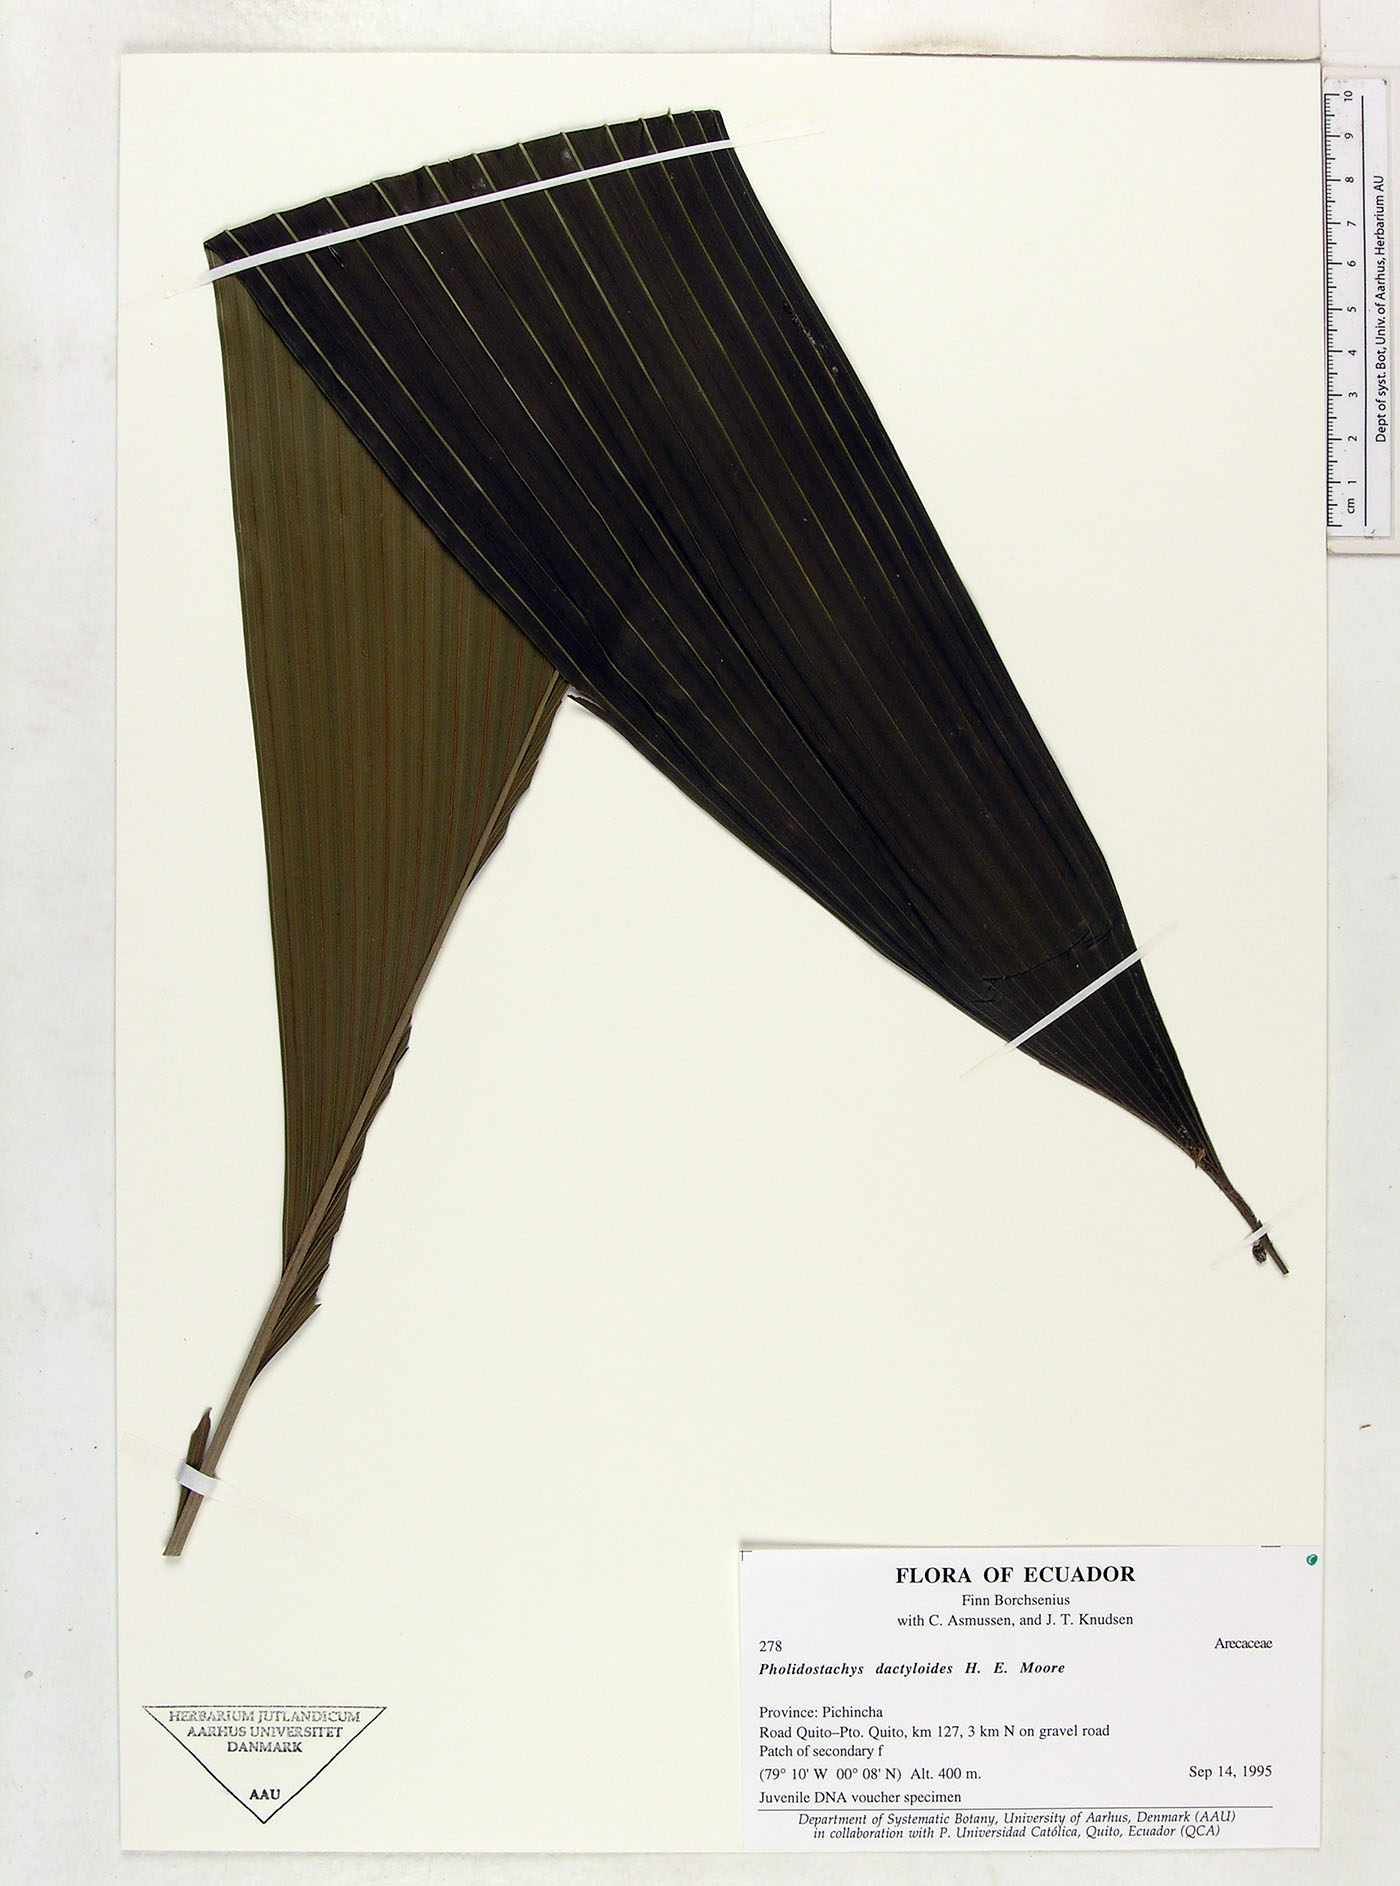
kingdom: Plantae
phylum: Tracheophyta
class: Liliopsida
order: Arecales
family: Arecaceae
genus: Pholidostachys
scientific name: Pholidostachys dactyloides
